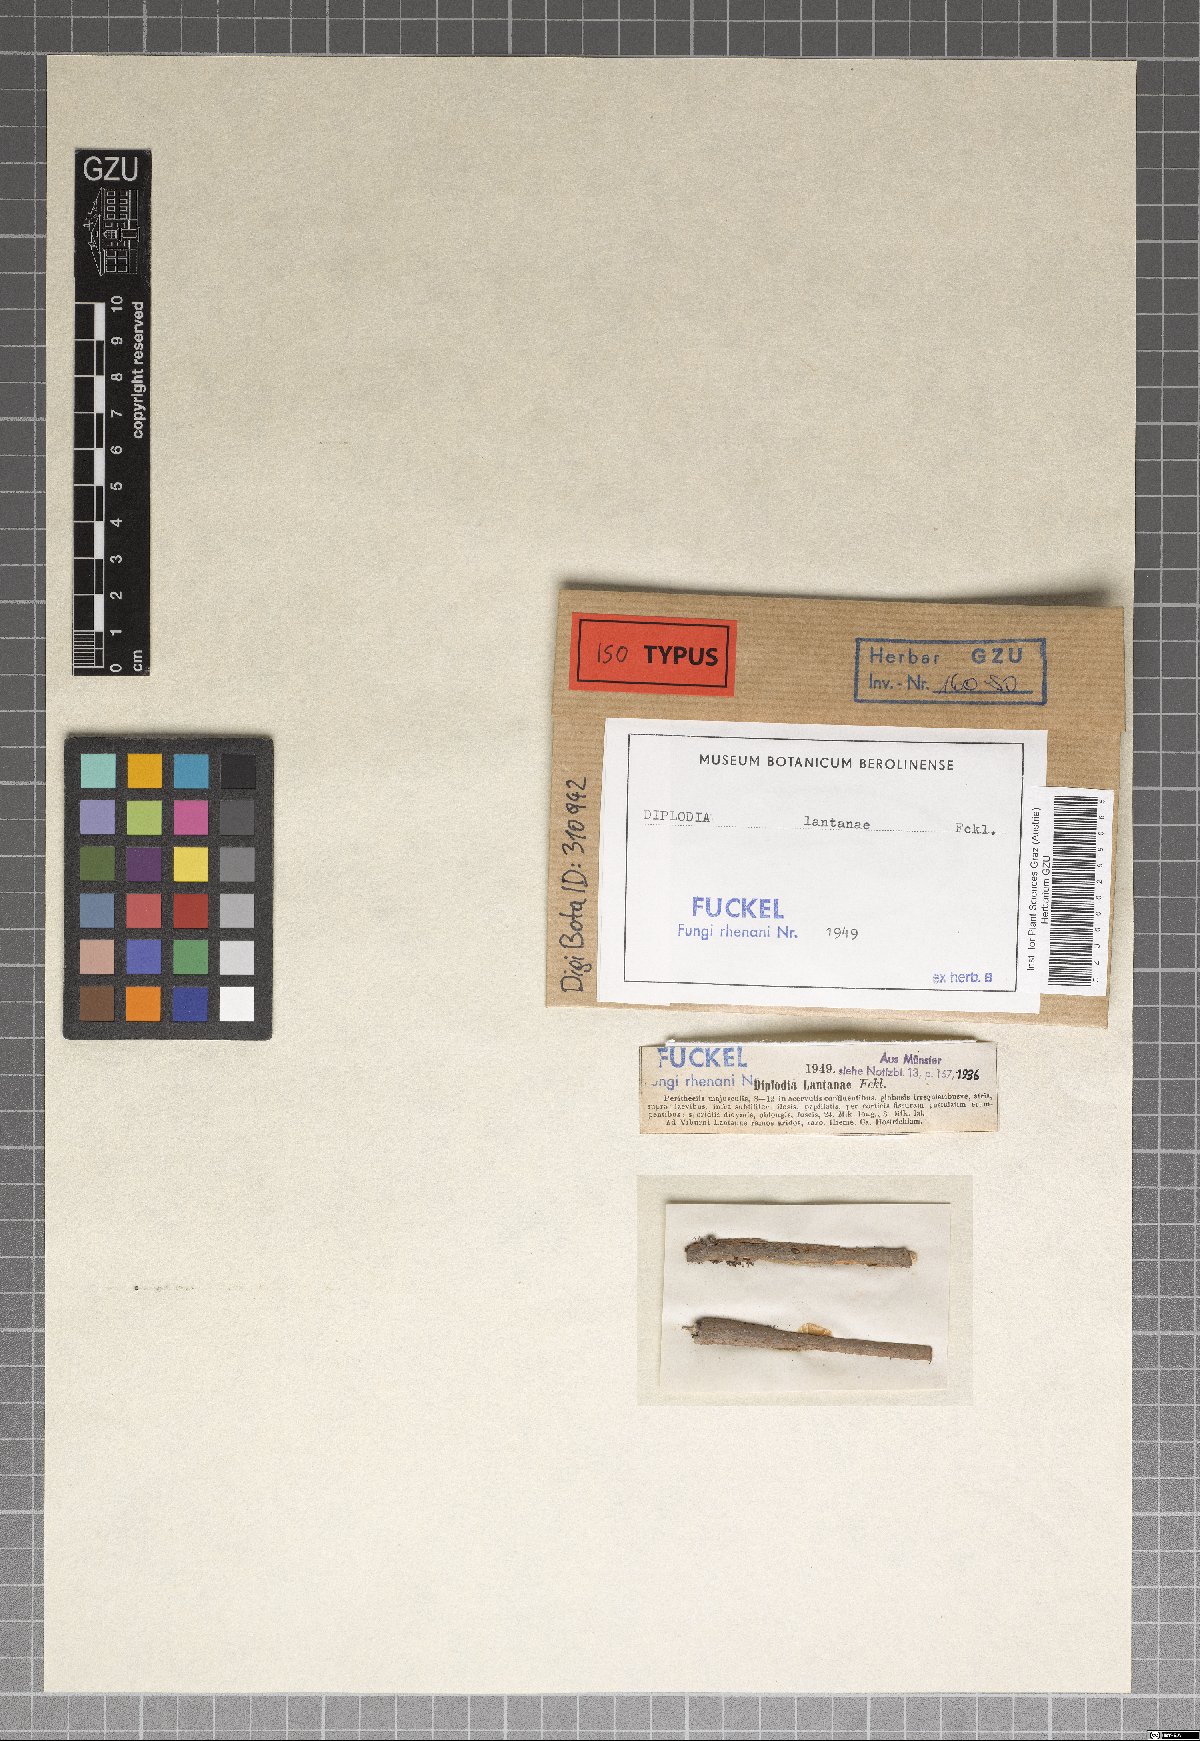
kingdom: Fungi
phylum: Ascomycota
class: Dothideomycetes
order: Botryosphaeriales
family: Botryosphaeriaceae
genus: Diplodia
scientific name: Diplodia lantanae
